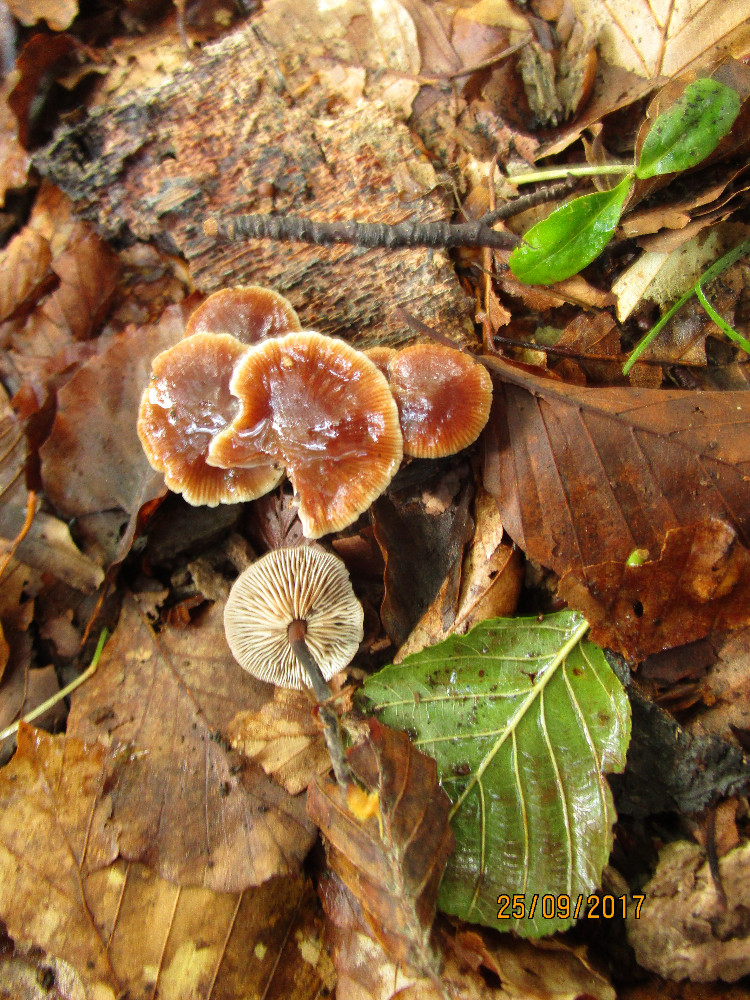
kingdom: Fungi
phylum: Basidiomycota
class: Agaricomycetes
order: Agaricales
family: Omphalotaceae
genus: Gymnopus
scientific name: Gymnopus brassicolens
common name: kål-fladhat
